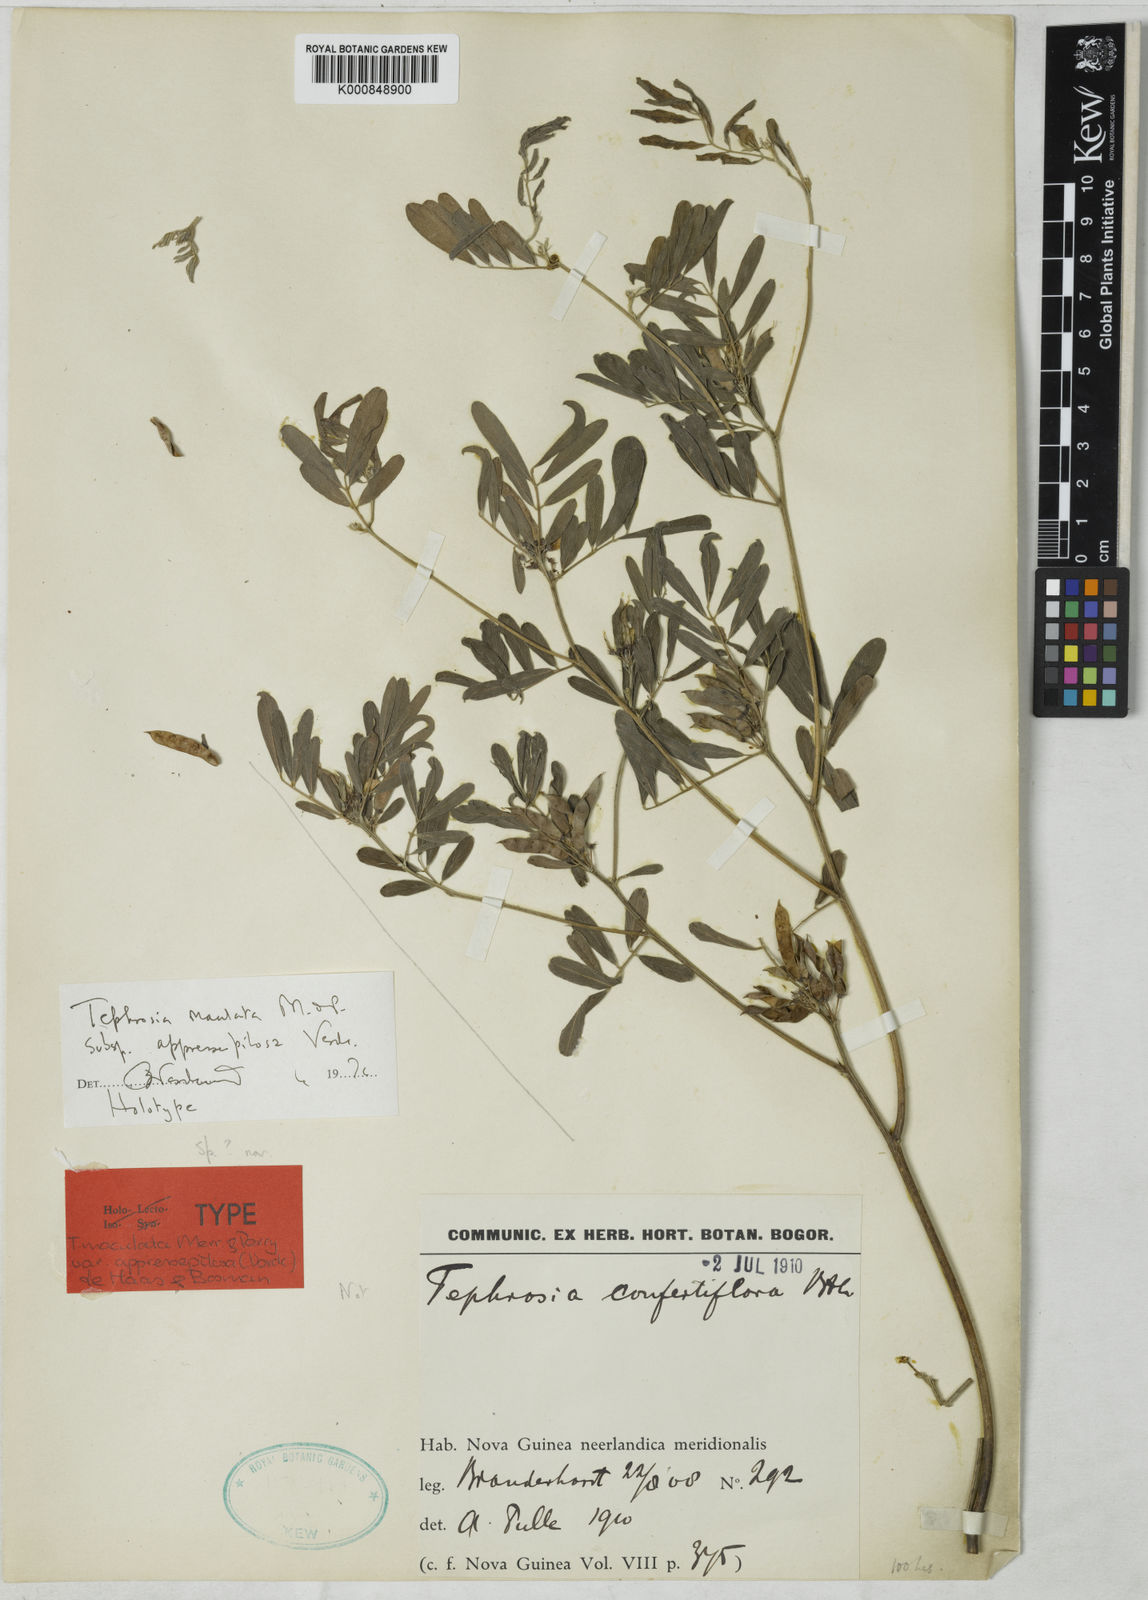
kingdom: Plantae
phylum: Tracheophyta
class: Magnoliopsida
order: Fabales
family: Fabaceae
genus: Tephrosia
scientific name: Tephrosia maculata
